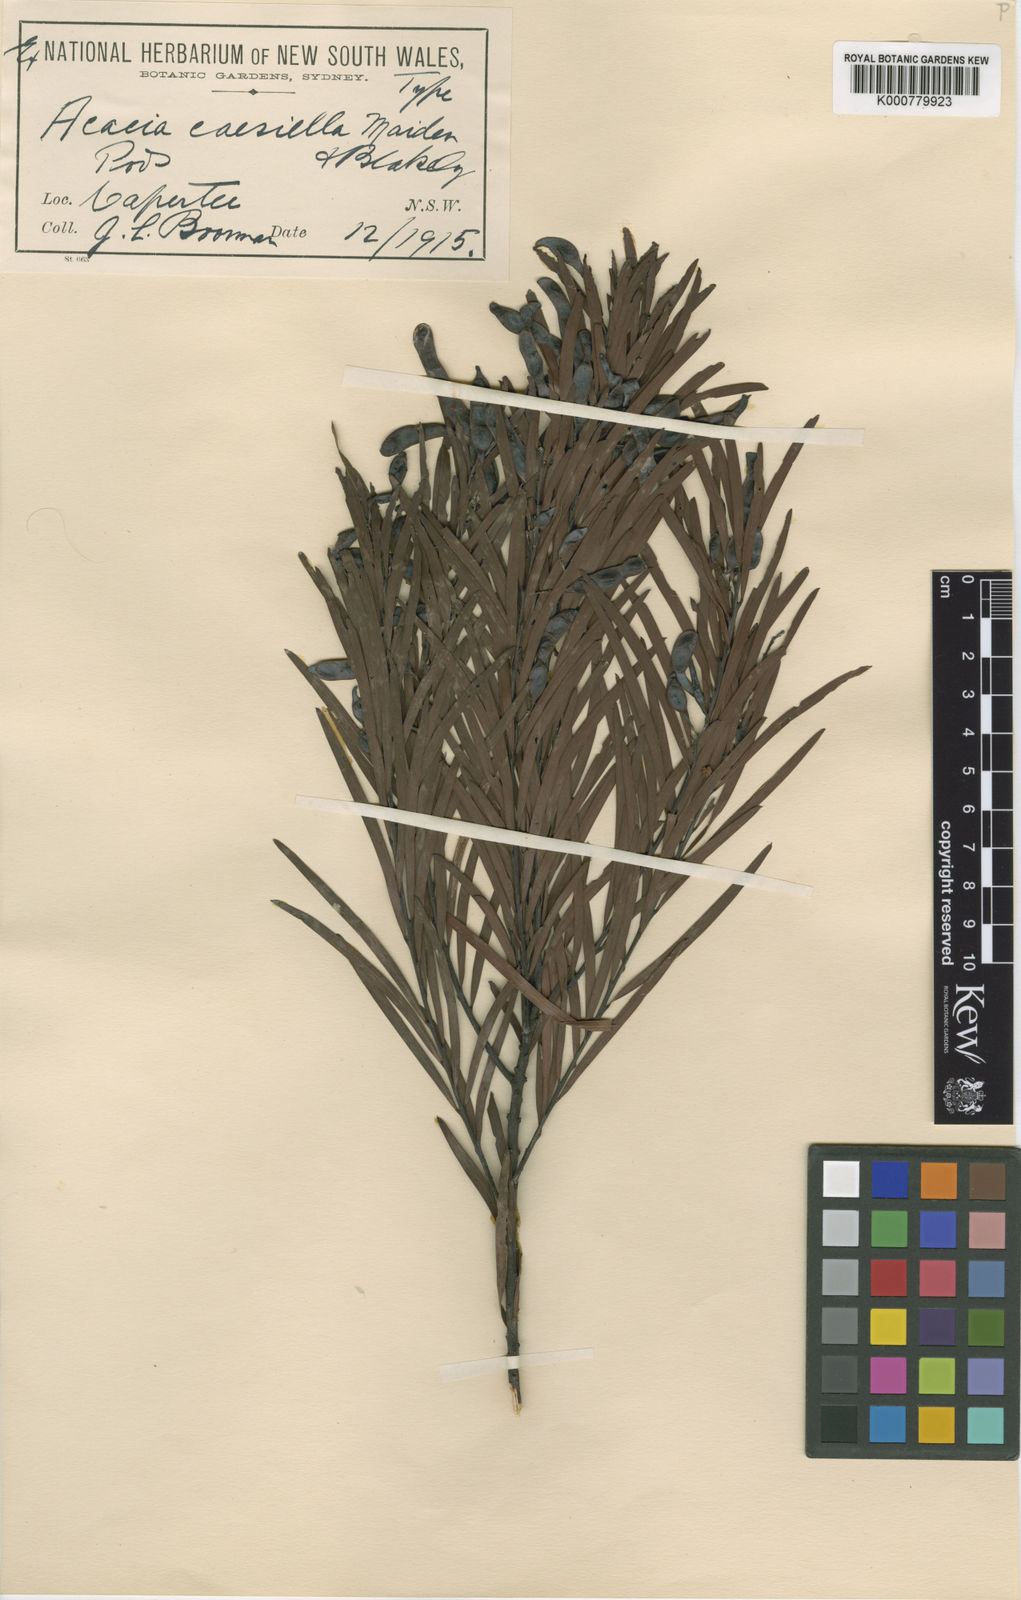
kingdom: Plantae
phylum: Tracheophyta
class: Magnoliopsida
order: Fabales
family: Fabaceae
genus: Acacia
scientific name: Acacia caesiella
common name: Tableland wattle
